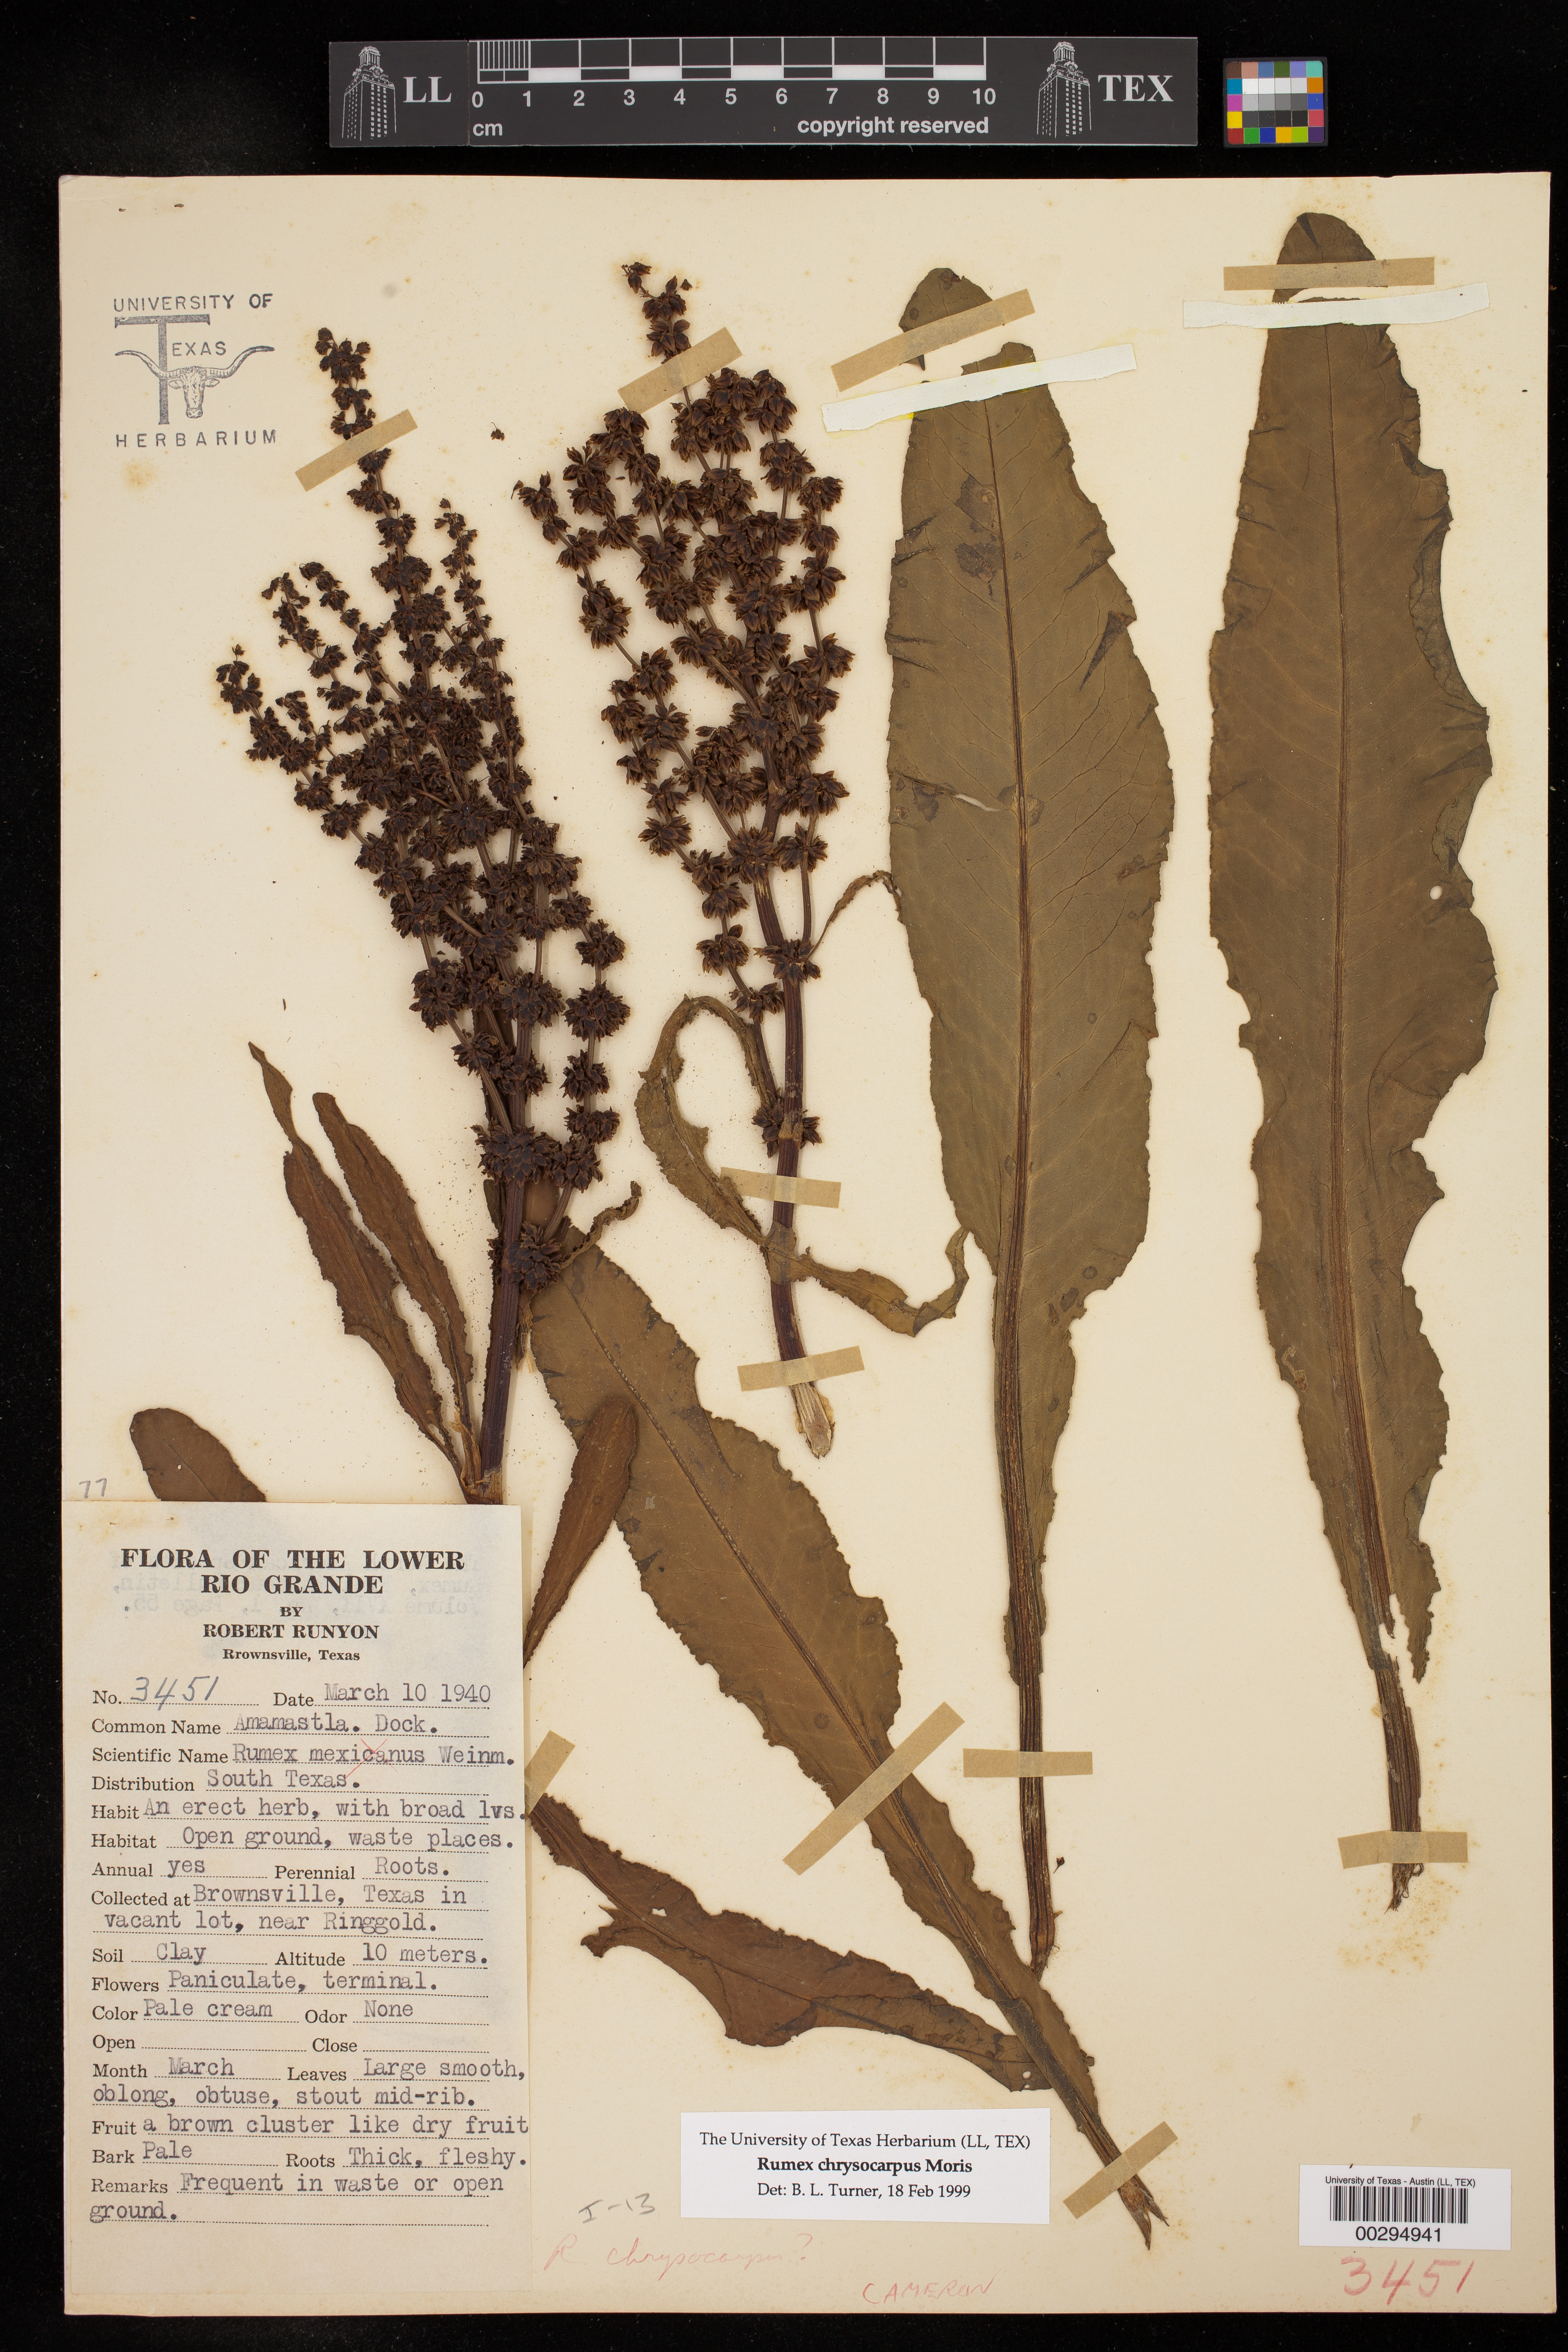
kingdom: Plantae
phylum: Tracheophyta
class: Magnoliopsida
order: Caryophyllales
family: Polygonaceae
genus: Rumex
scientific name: Rumex chrysocarpus
